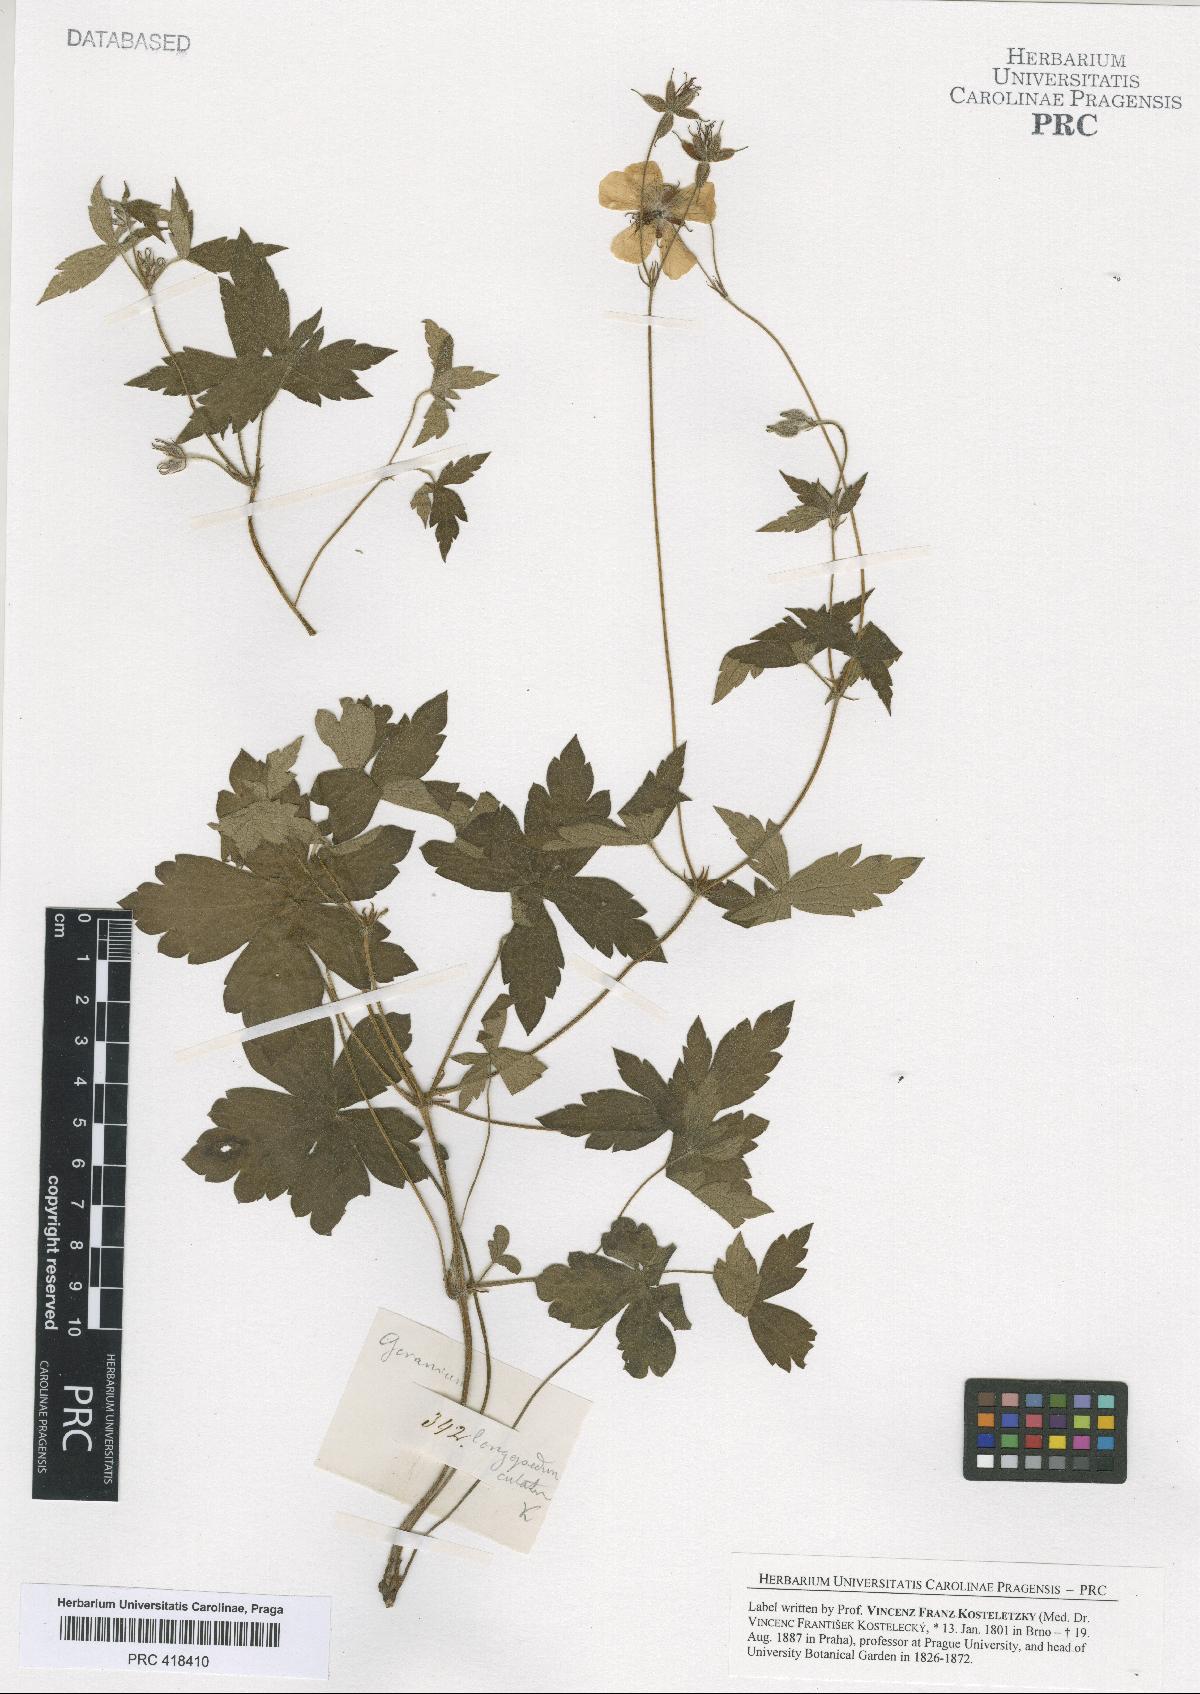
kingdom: Plantae
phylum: Tracheophyta
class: Magnoliopsida
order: Geraniales
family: Geraniaceae
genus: Geranium
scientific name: Geranium hernandesii
